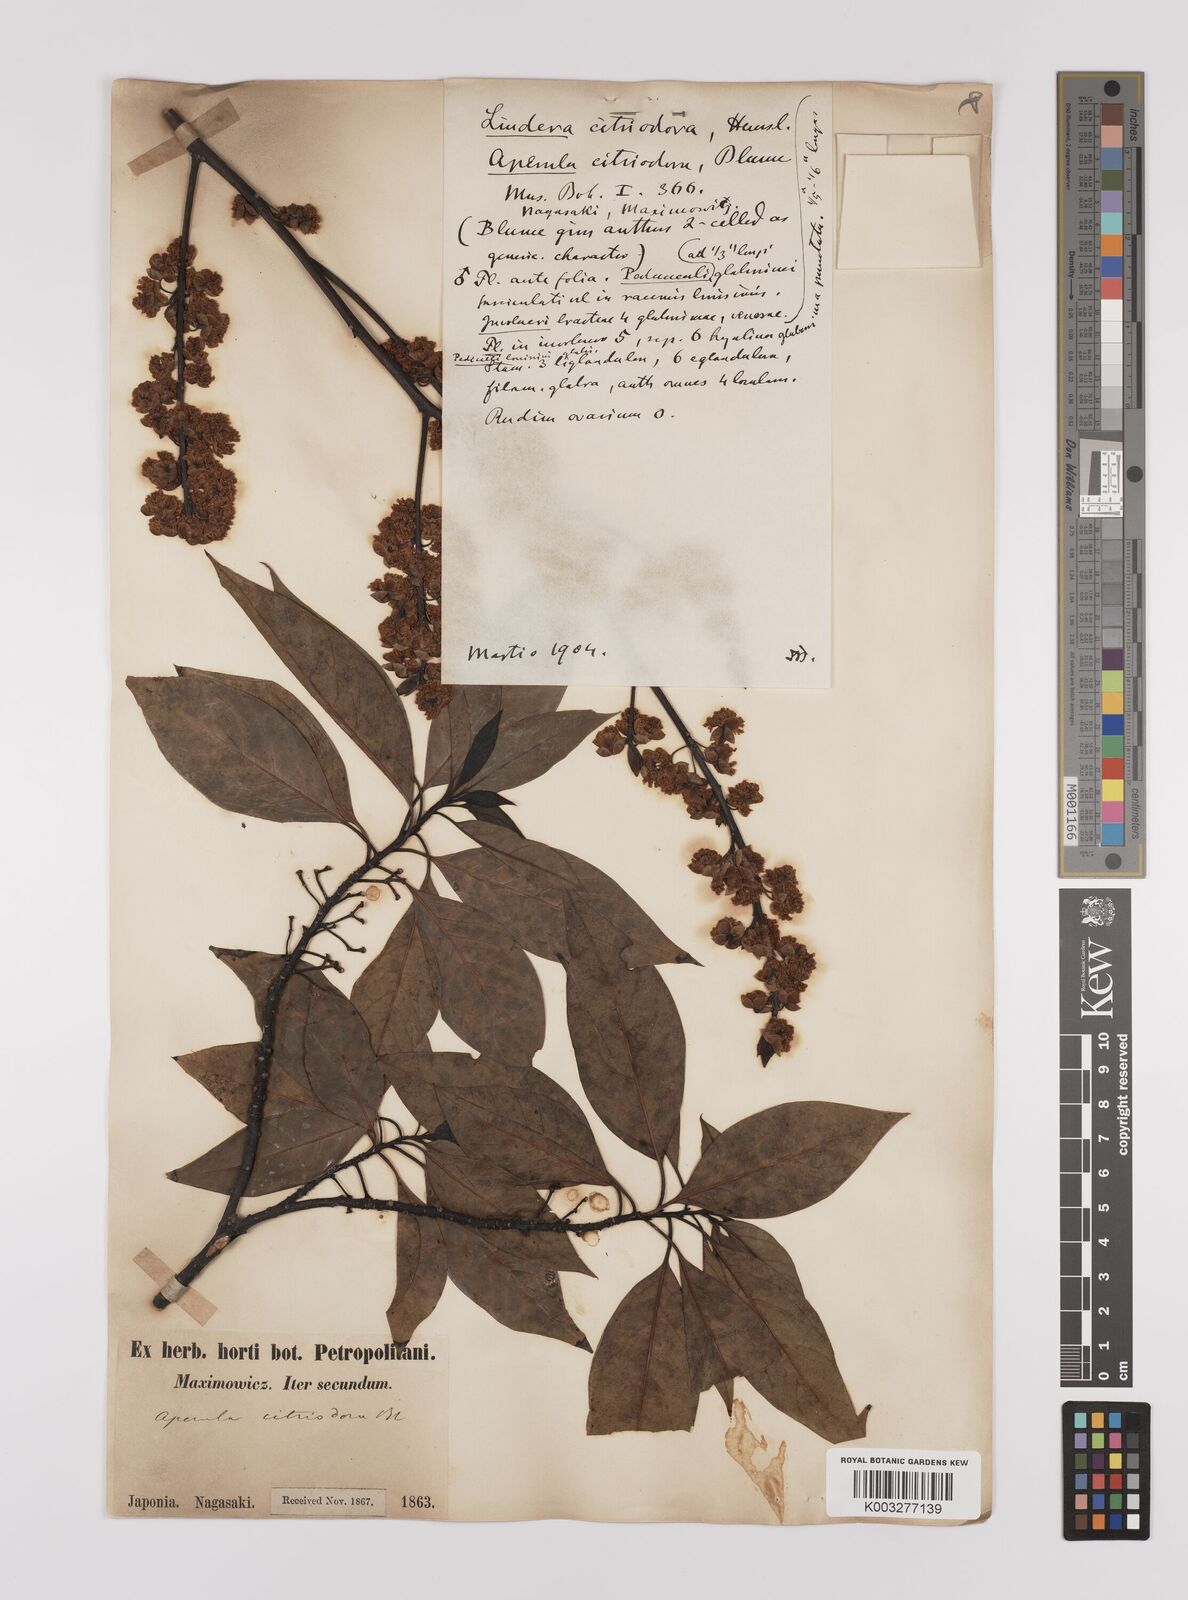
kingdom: Plantae
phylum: Tracheophyta
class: Magnoliopsida
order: Laurales
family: Lauraceae
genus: Litsea
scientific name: Litsea cubeba
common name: Mountain-pepper
